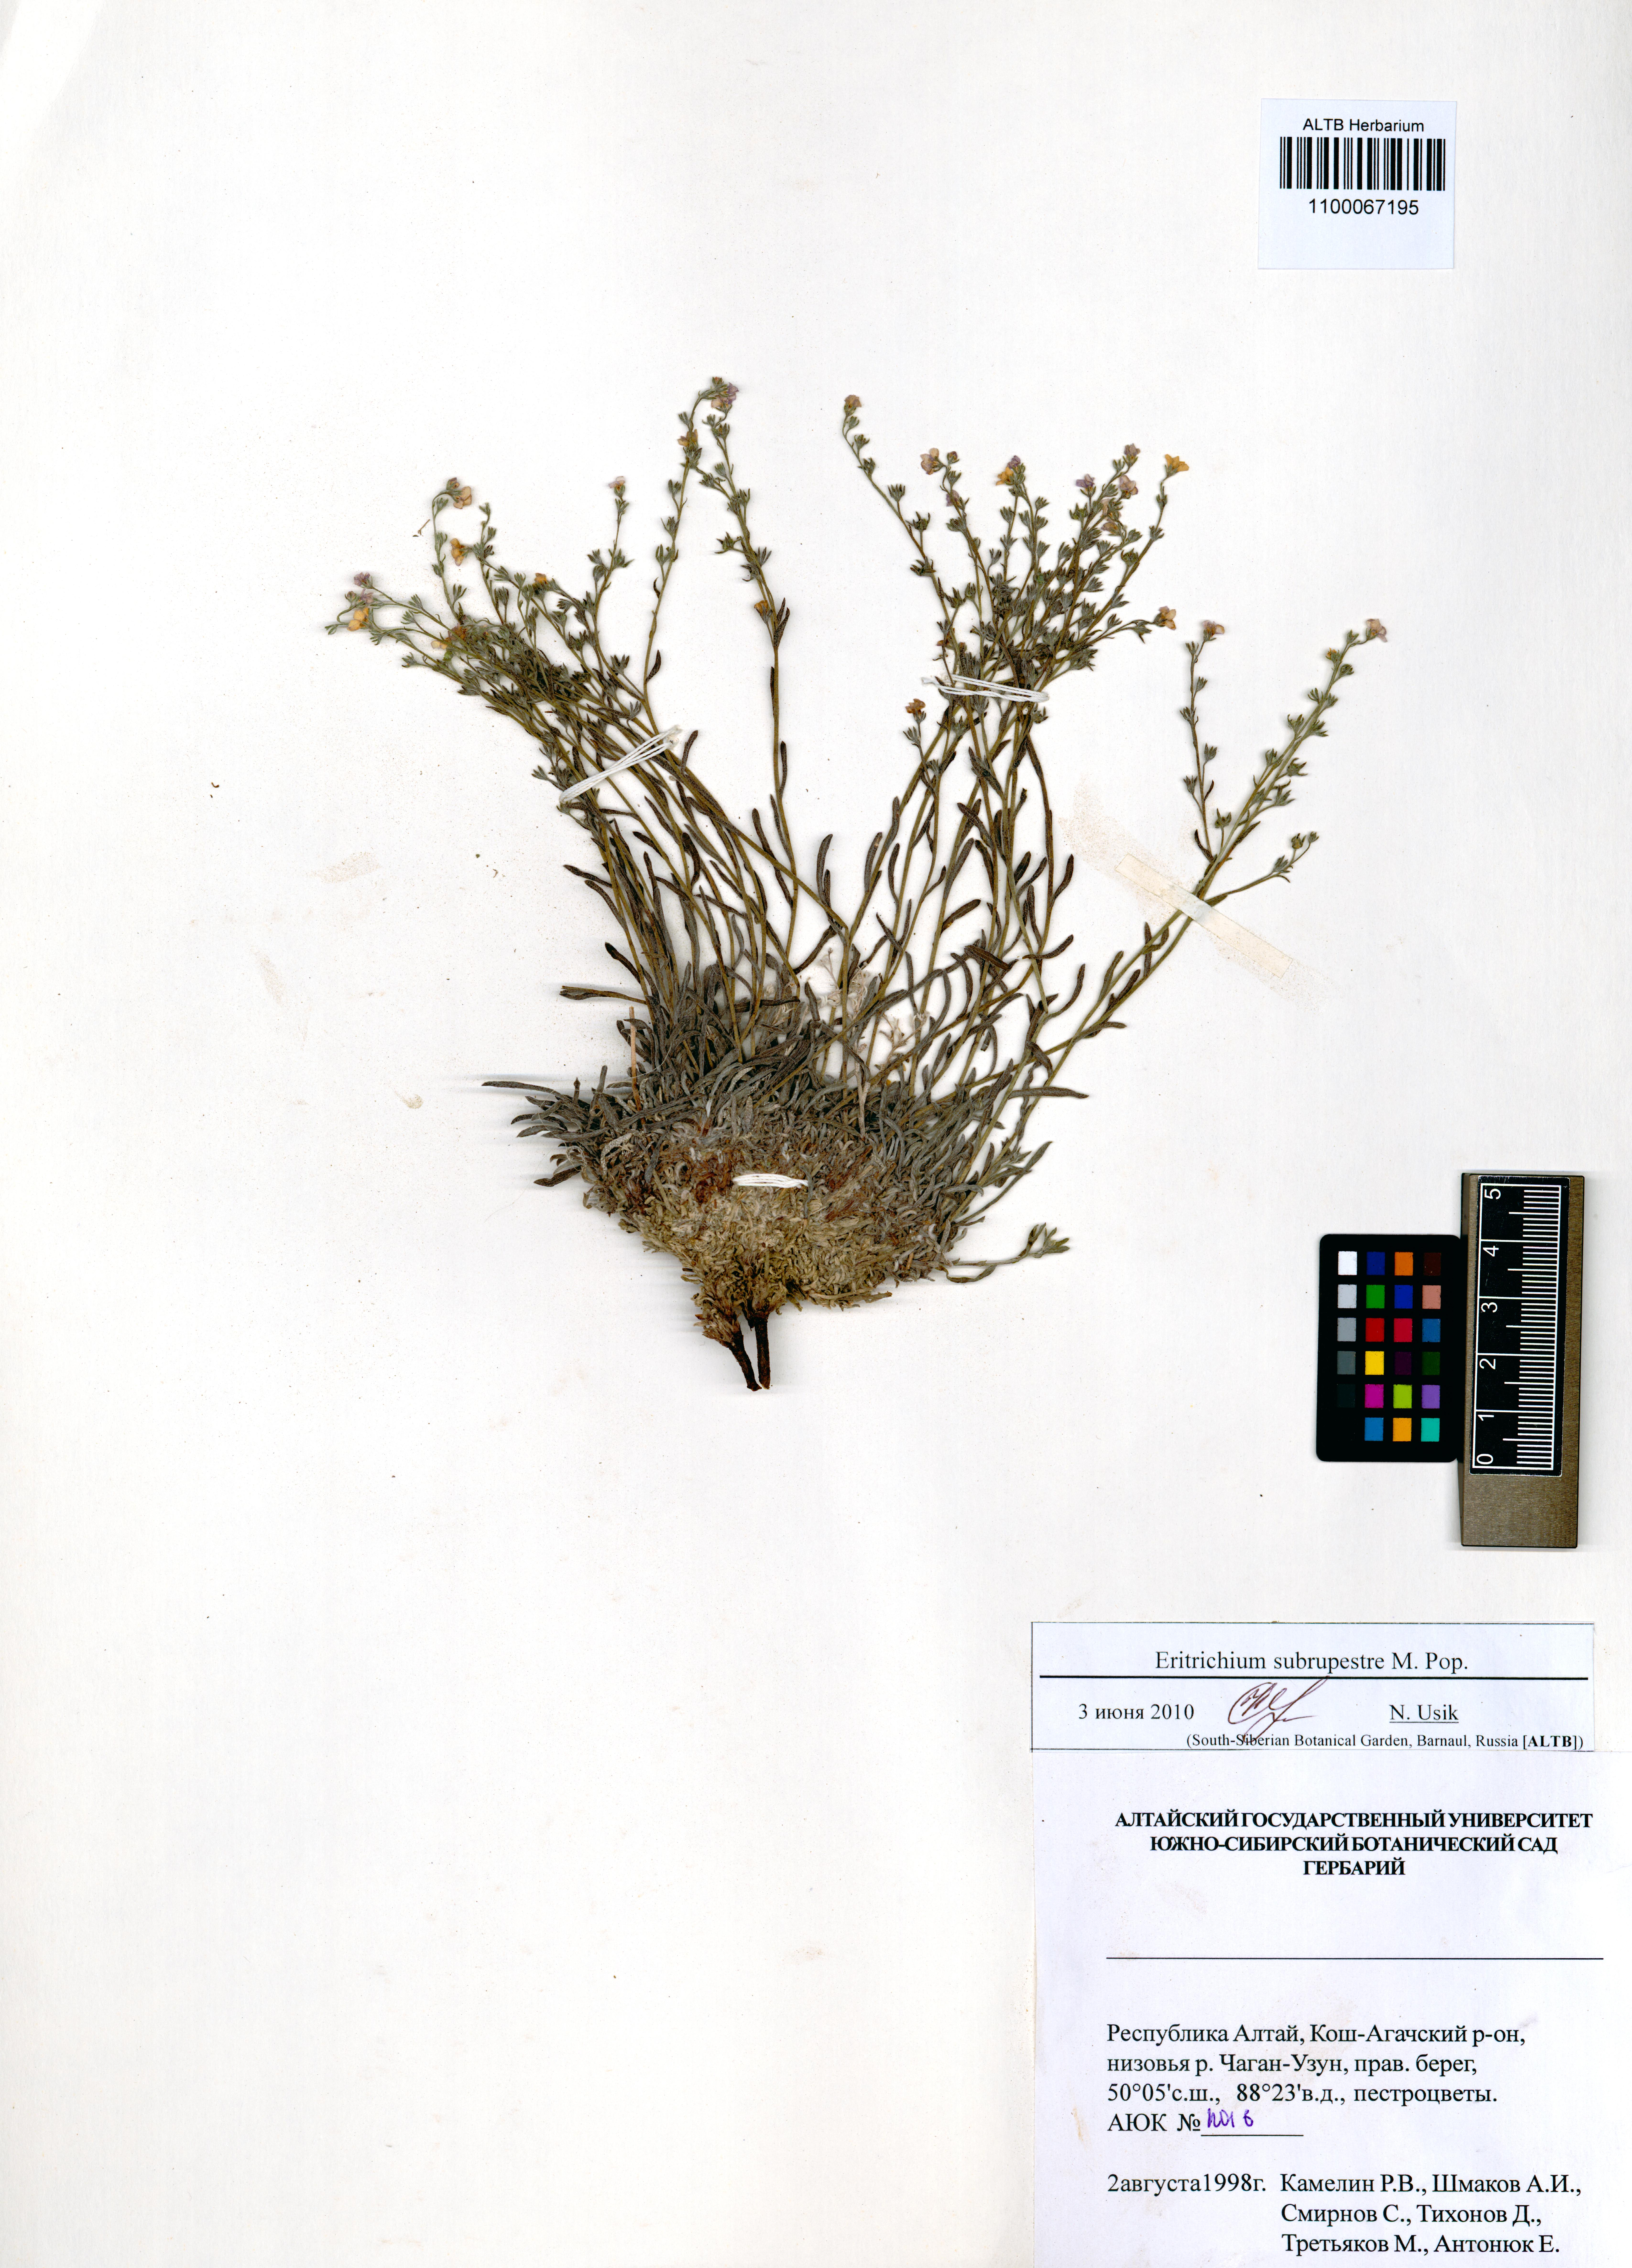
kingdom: Plantae
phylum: Tracheophyta
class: Magnoliopsida
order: Boraginales
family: Boraginaceae
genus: Eritrichium
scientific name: Eritrichium pauciflorum
